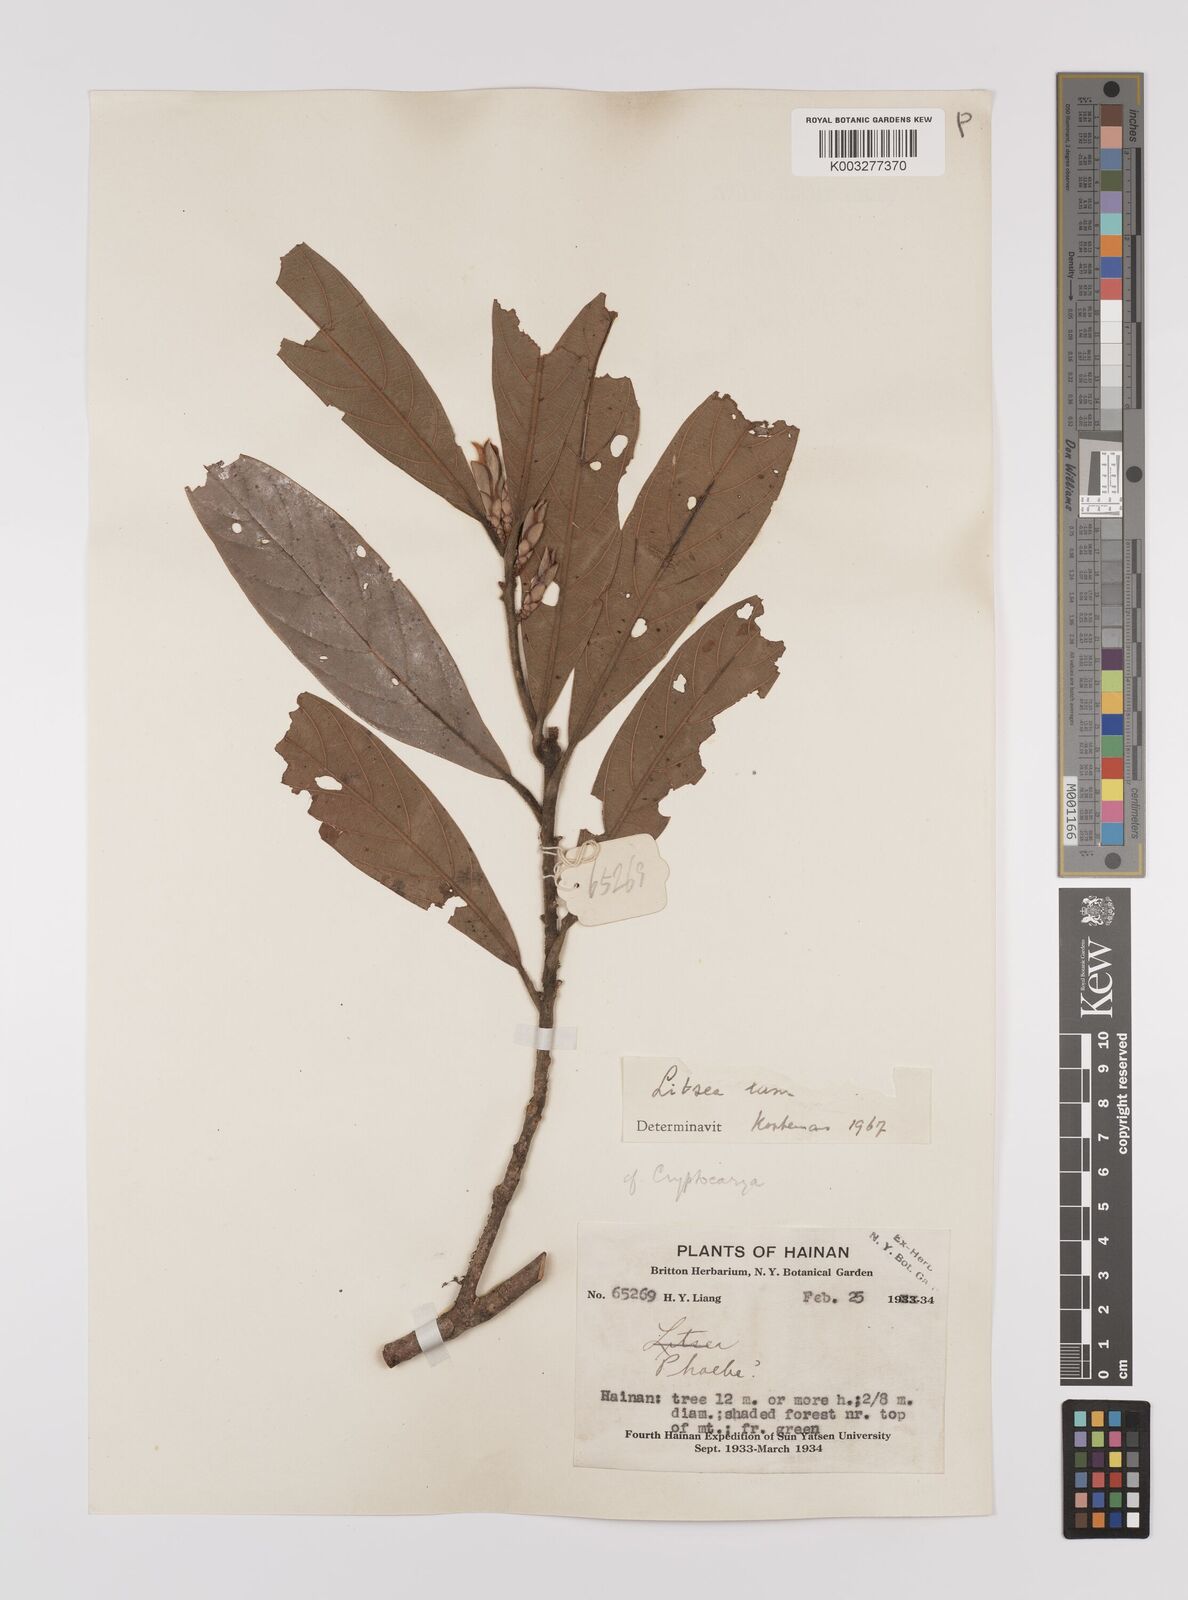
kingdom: Plantae
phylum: Tracheophyta
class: Magnoliopsida
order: Laurales
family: Lauraceae
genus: Litsea
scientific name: Litsea elongata
